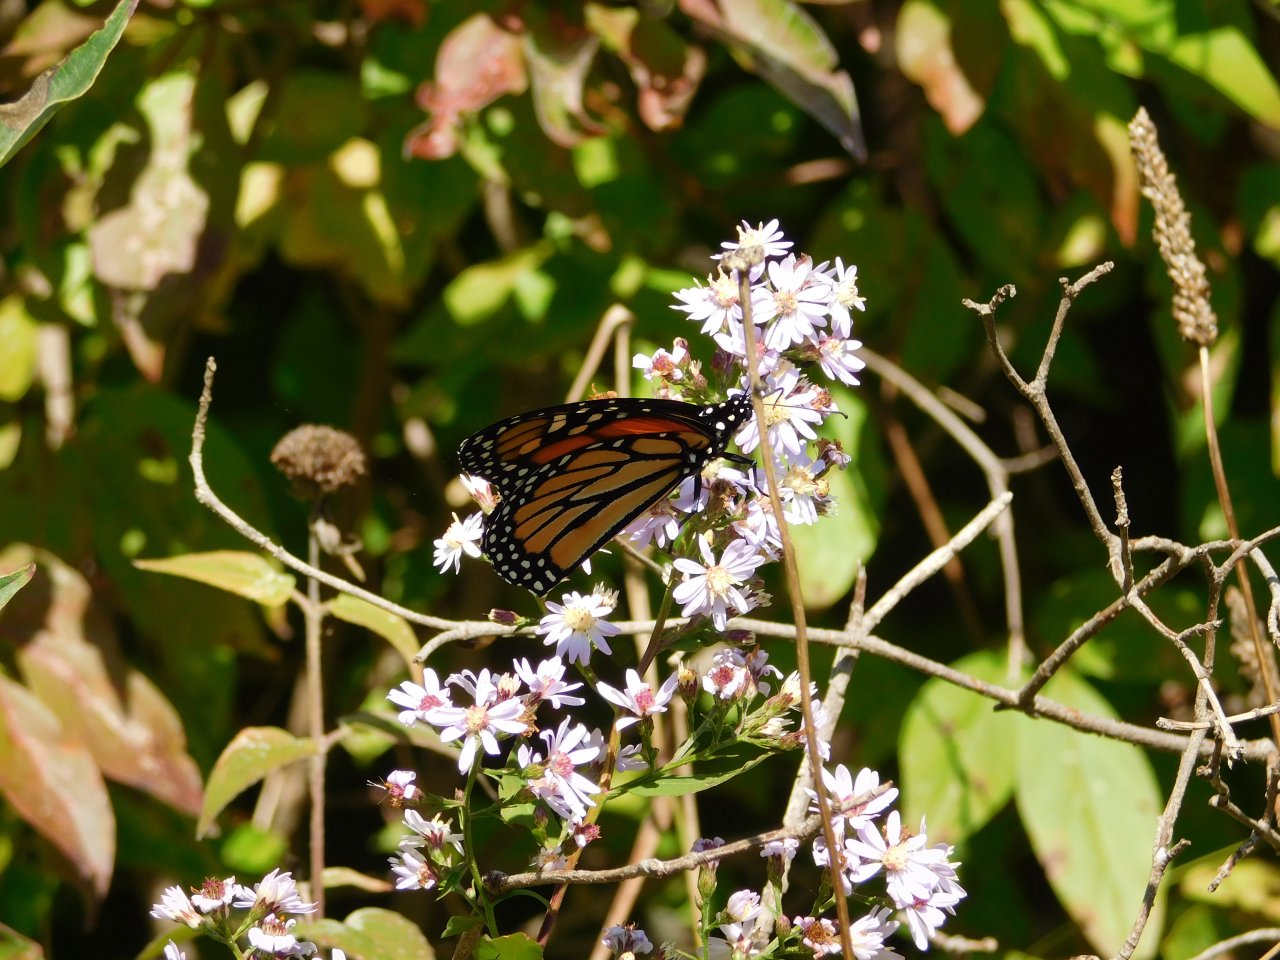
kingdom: Animalia
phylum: Arthropoda
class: Insecta
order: Lepidoptera
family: Nymphalidae
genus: Danaus
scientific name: Danaus plexippus
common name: Monarch
